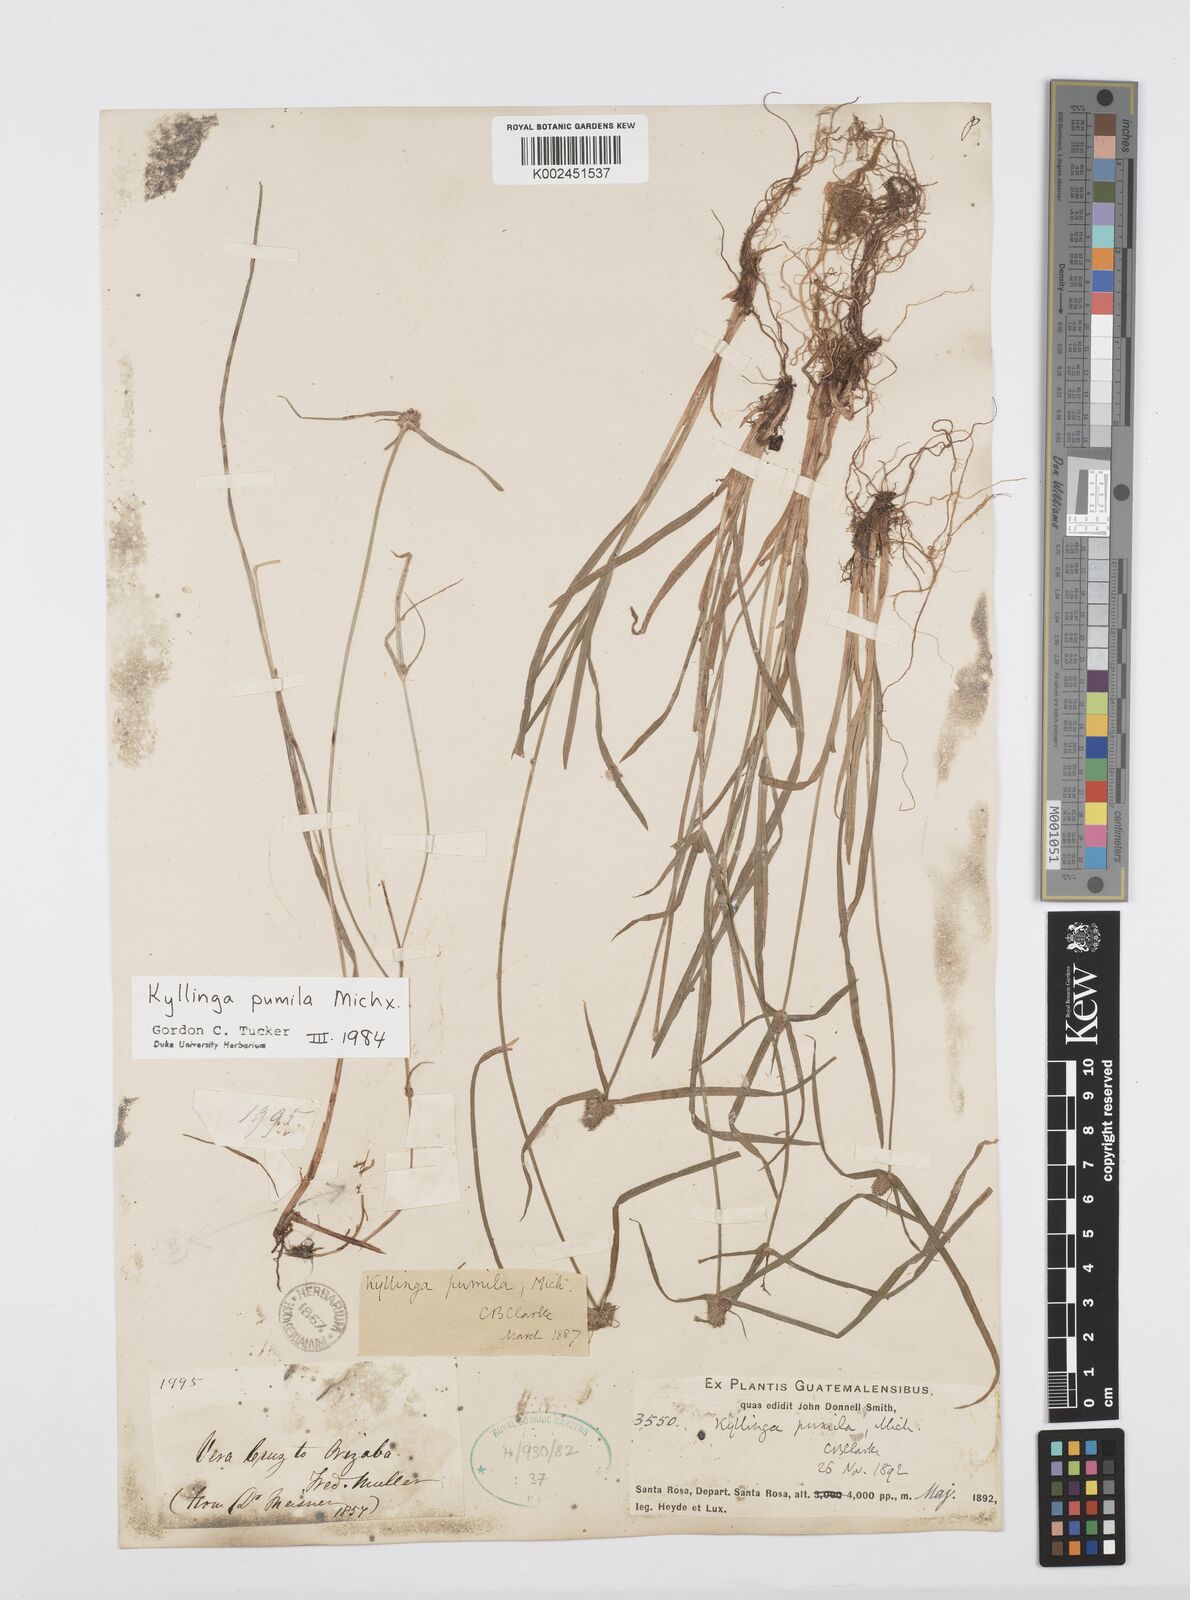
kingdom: Plantae
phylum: Tracheophyta
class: Liliopsida
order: Poales
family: Cyperaceae
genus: Cyperus
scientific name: Cyperus
